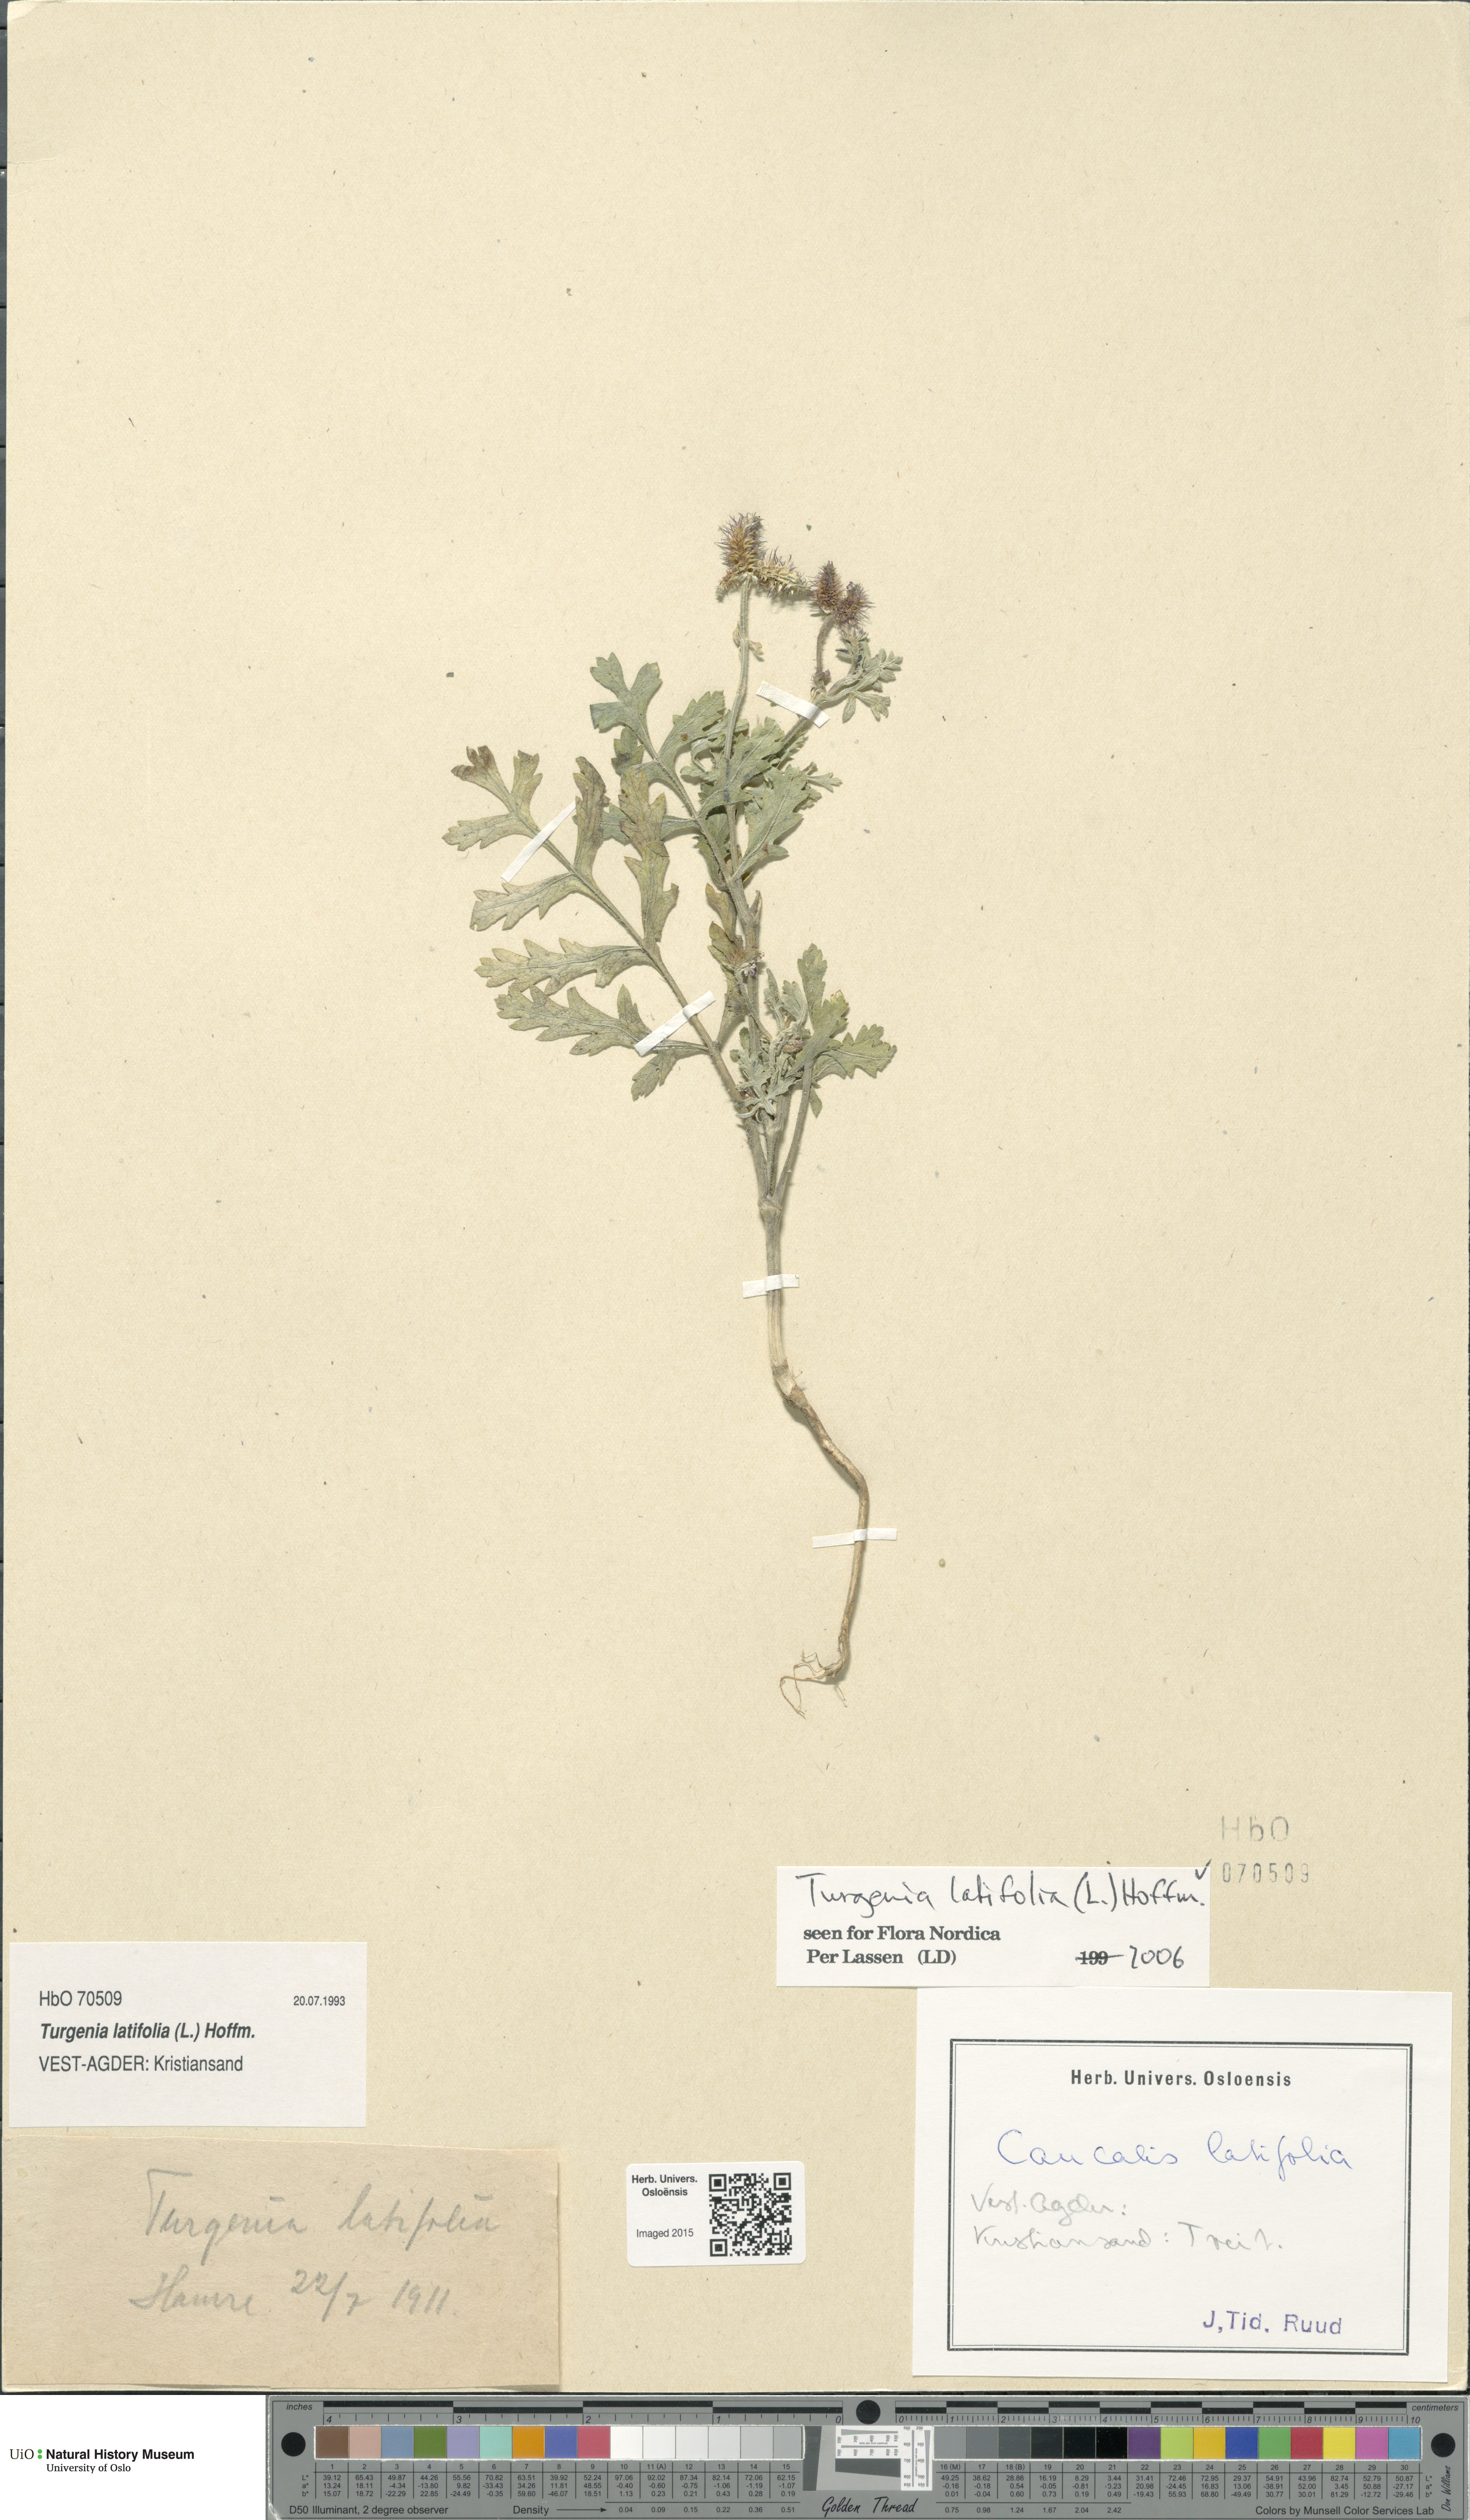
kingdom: Plantae
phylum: Tracheophyta
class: Magnoliopsida
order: Apiales
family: Apiaceae
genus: Turgenia
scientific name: Turgenia latifolia
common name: Greater bur-parsley
